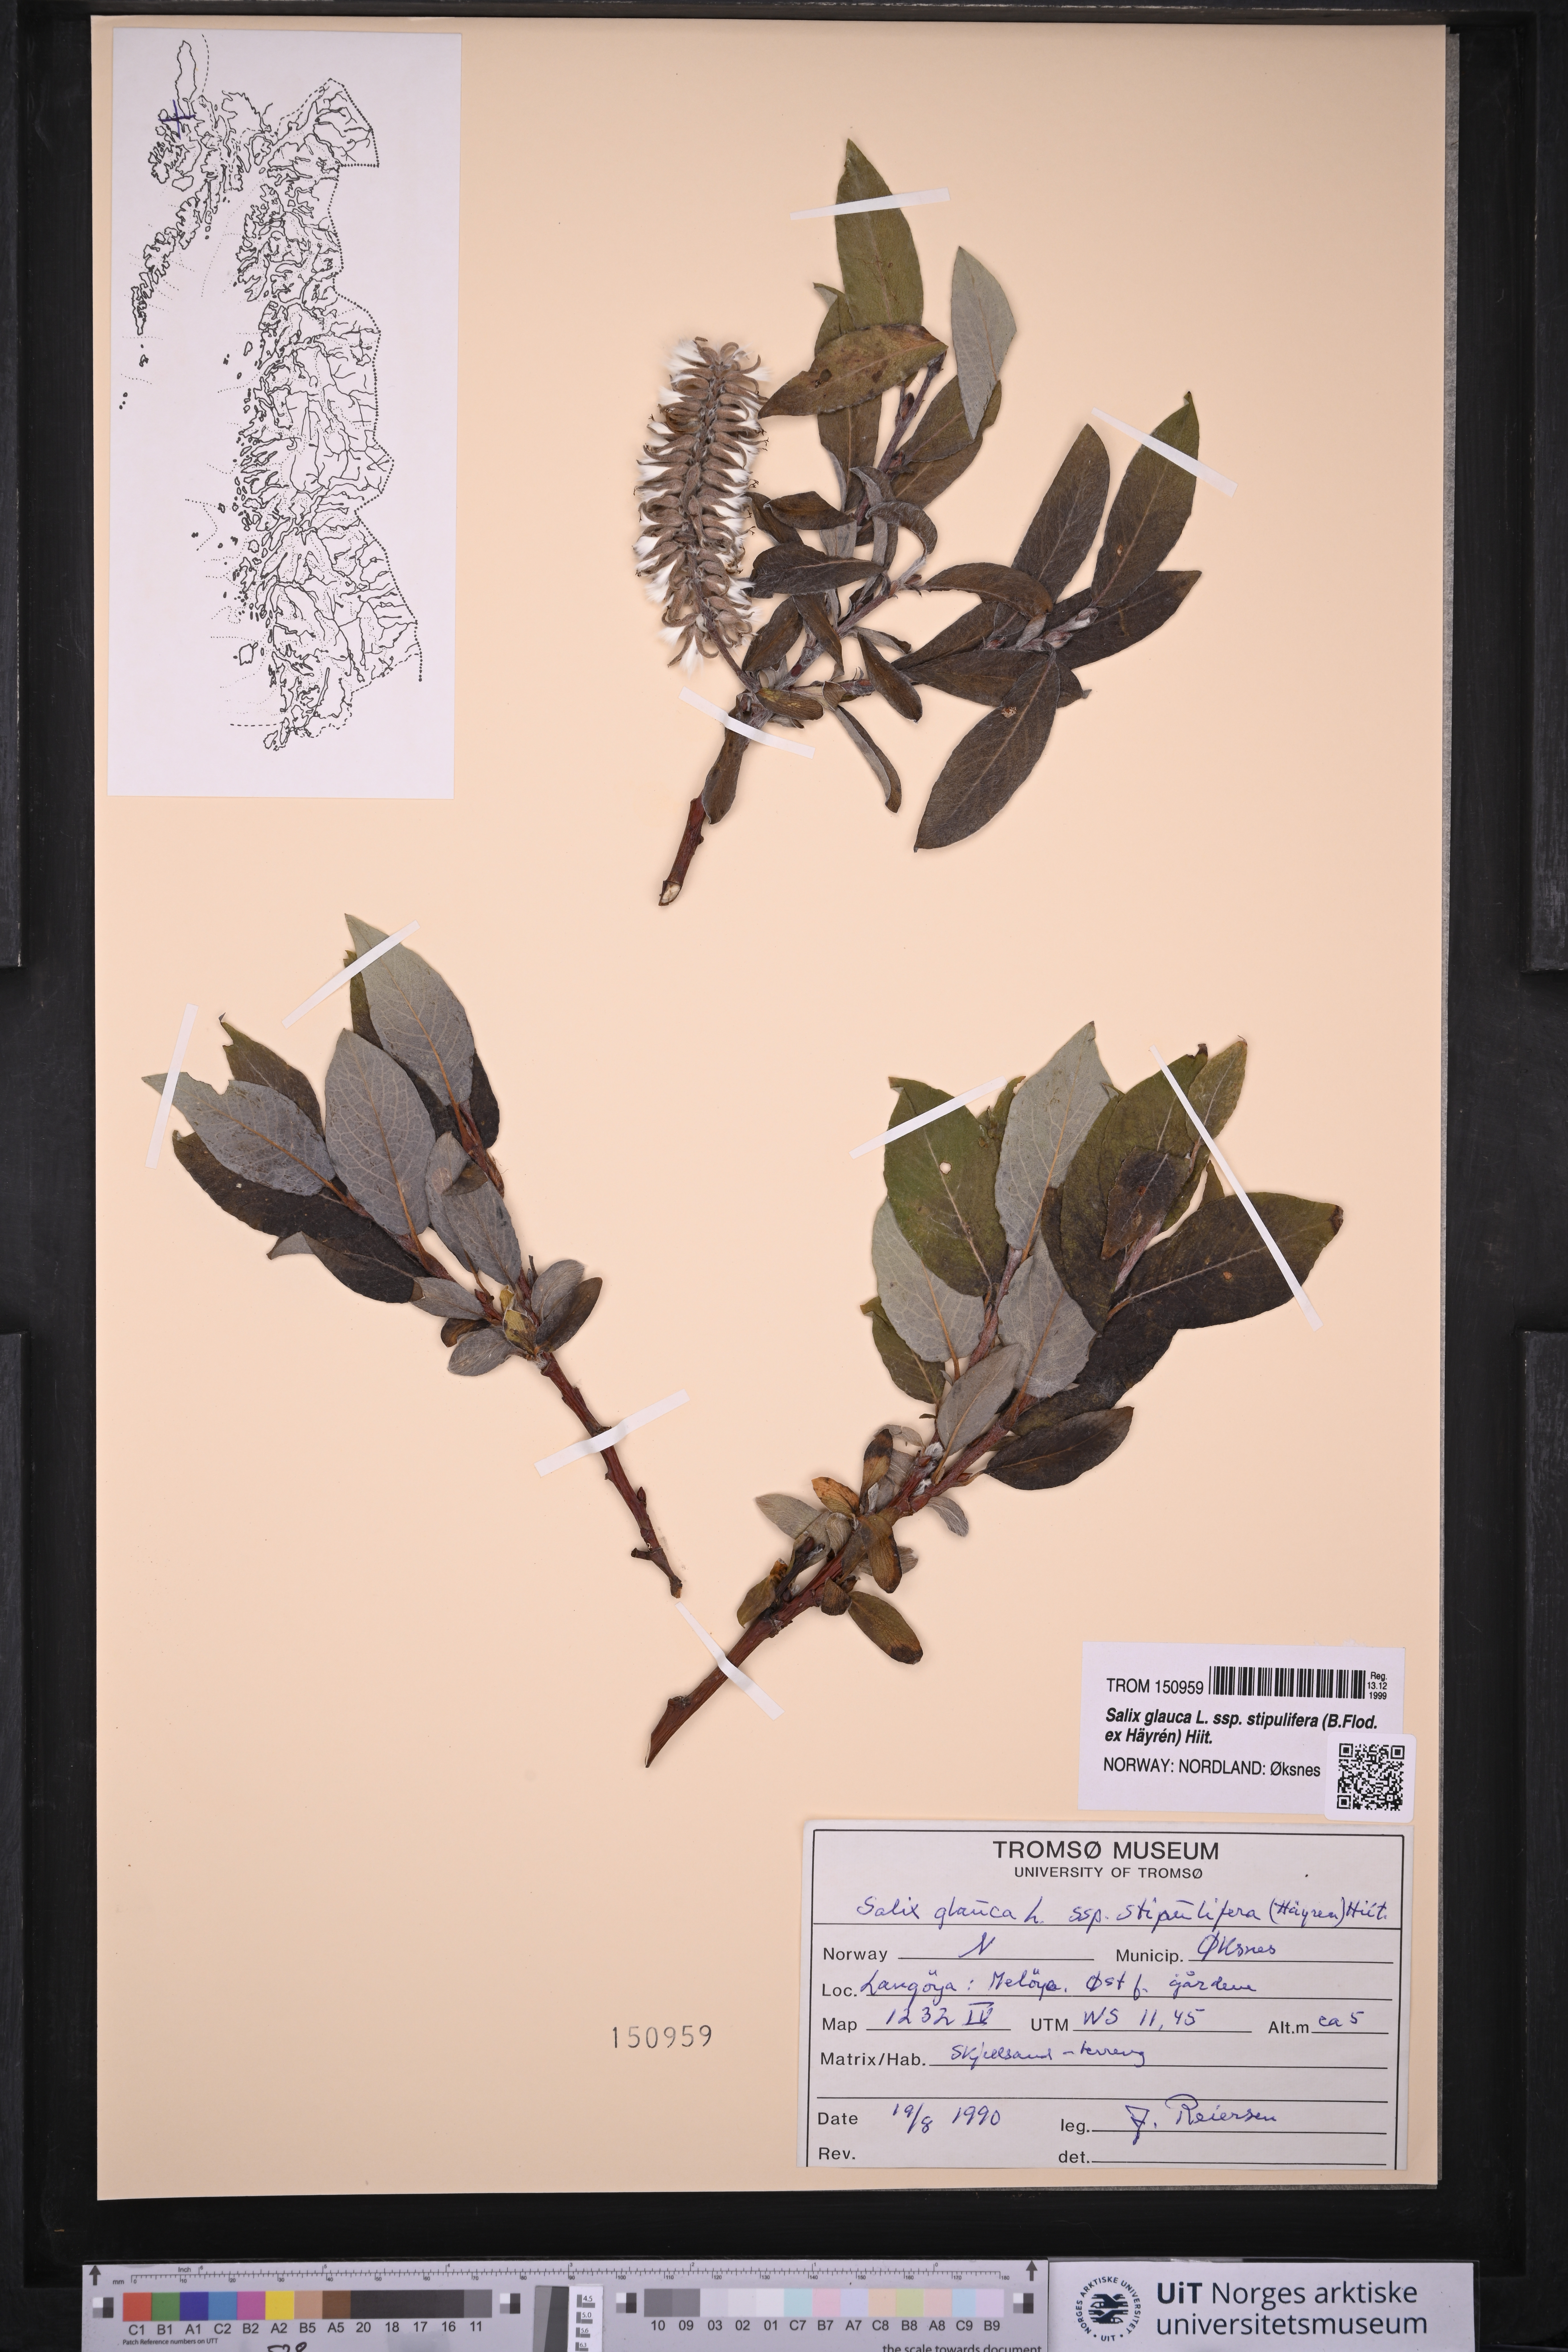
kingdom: Plantae
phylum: Tracheophyta
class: Magnoliopsida
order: Malpighiales
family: Salicaceae
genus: Salix
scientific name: Salix glauca
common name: Glaucous willow
